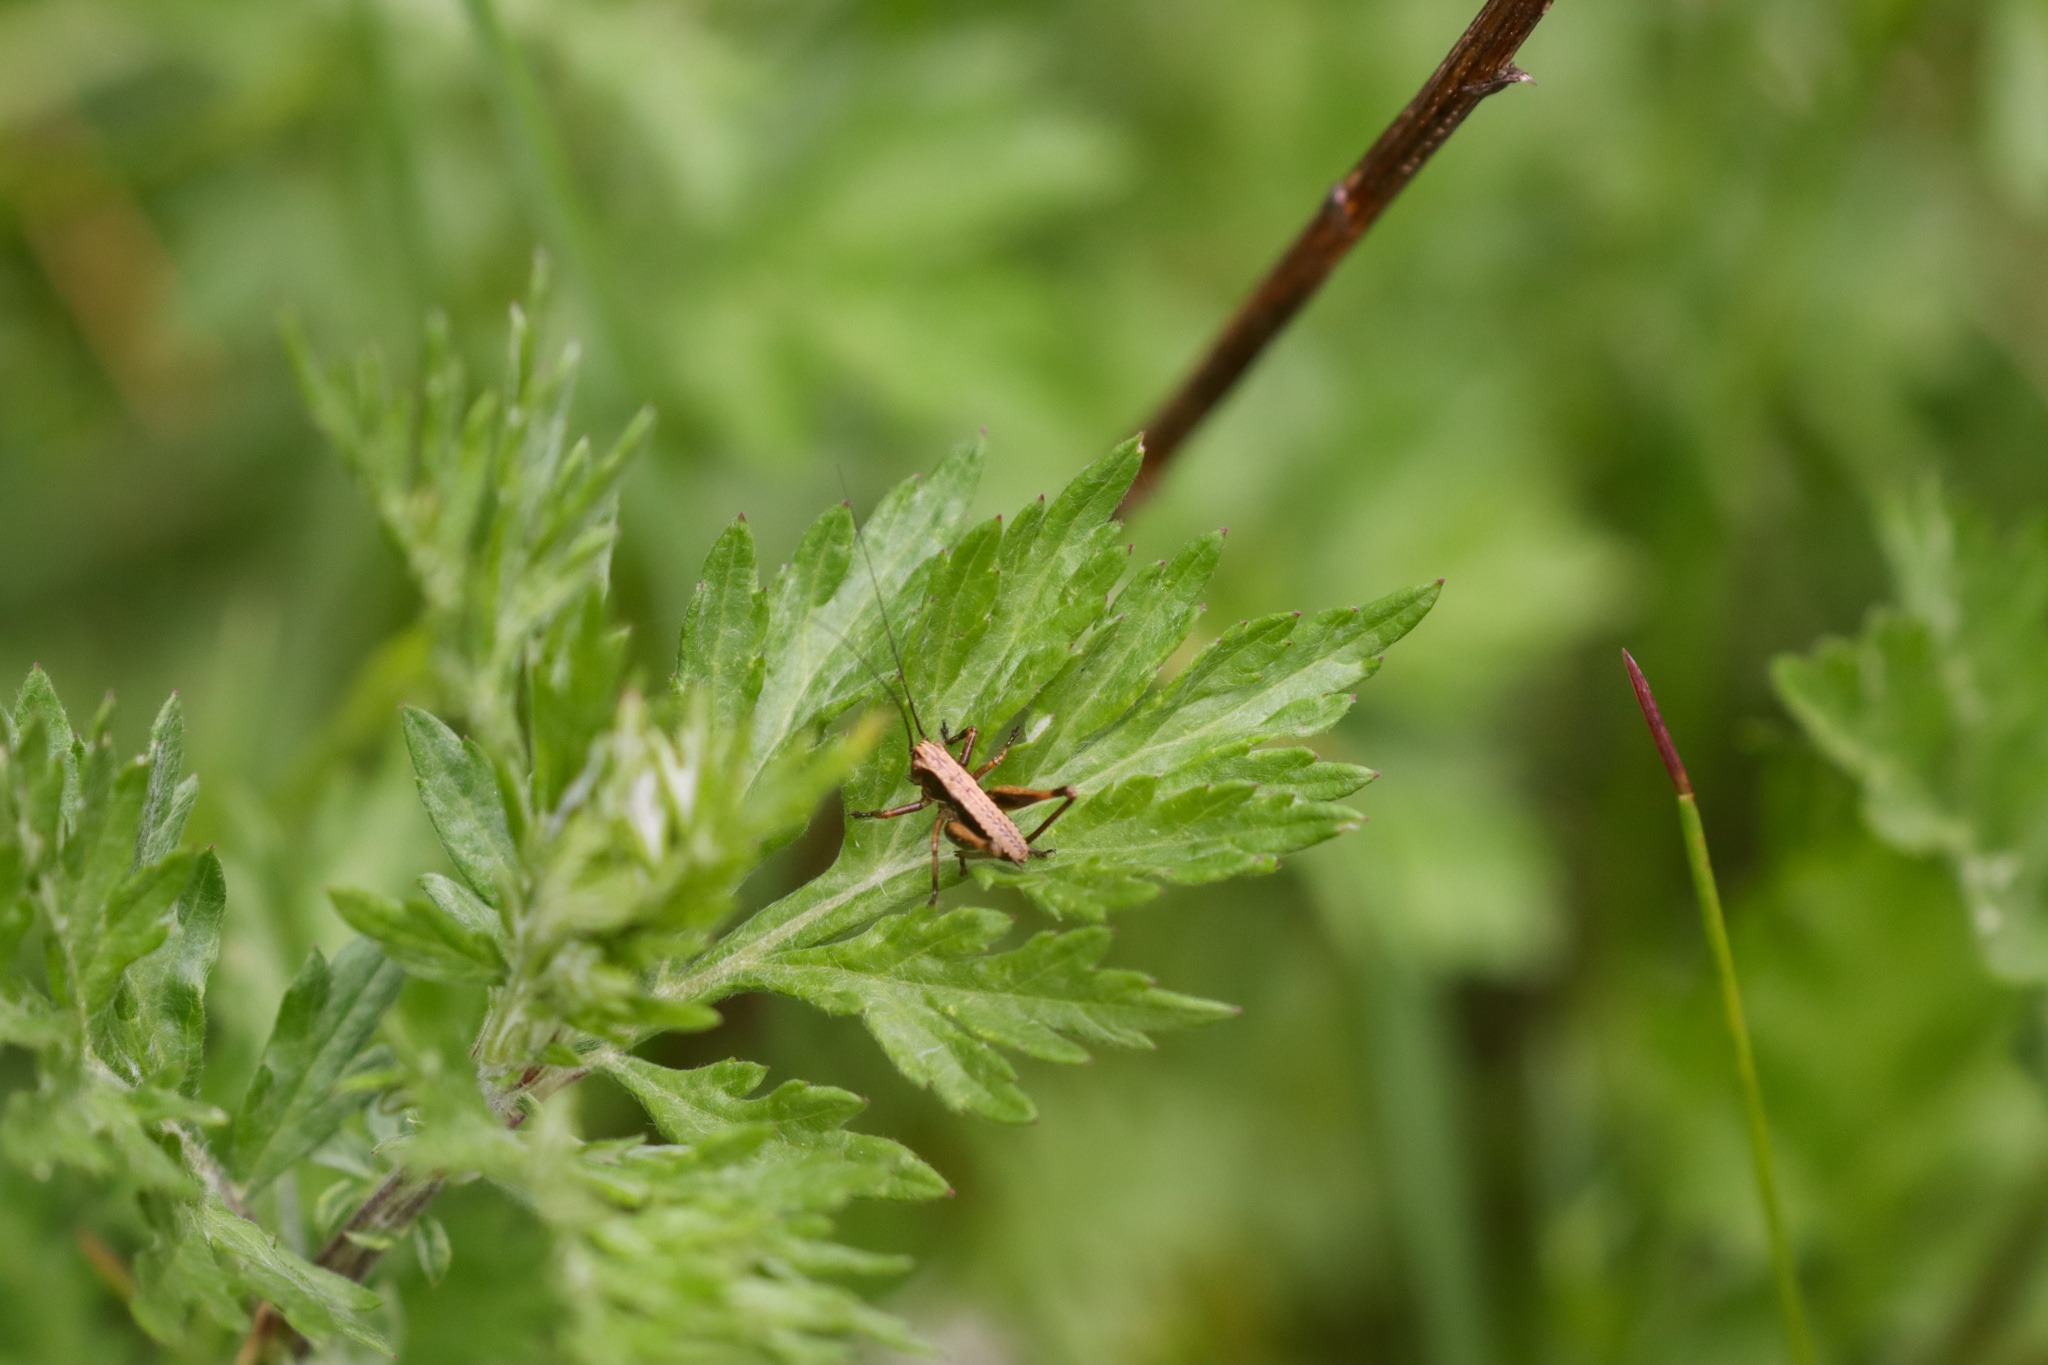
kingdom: Animalia
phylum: Arthropoda
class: Insecta
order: Orthoptera
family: Tettigoniidae
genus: Pholidoptera
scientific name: Pholidoptera griseoaptera
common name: Buskgræshoppe
